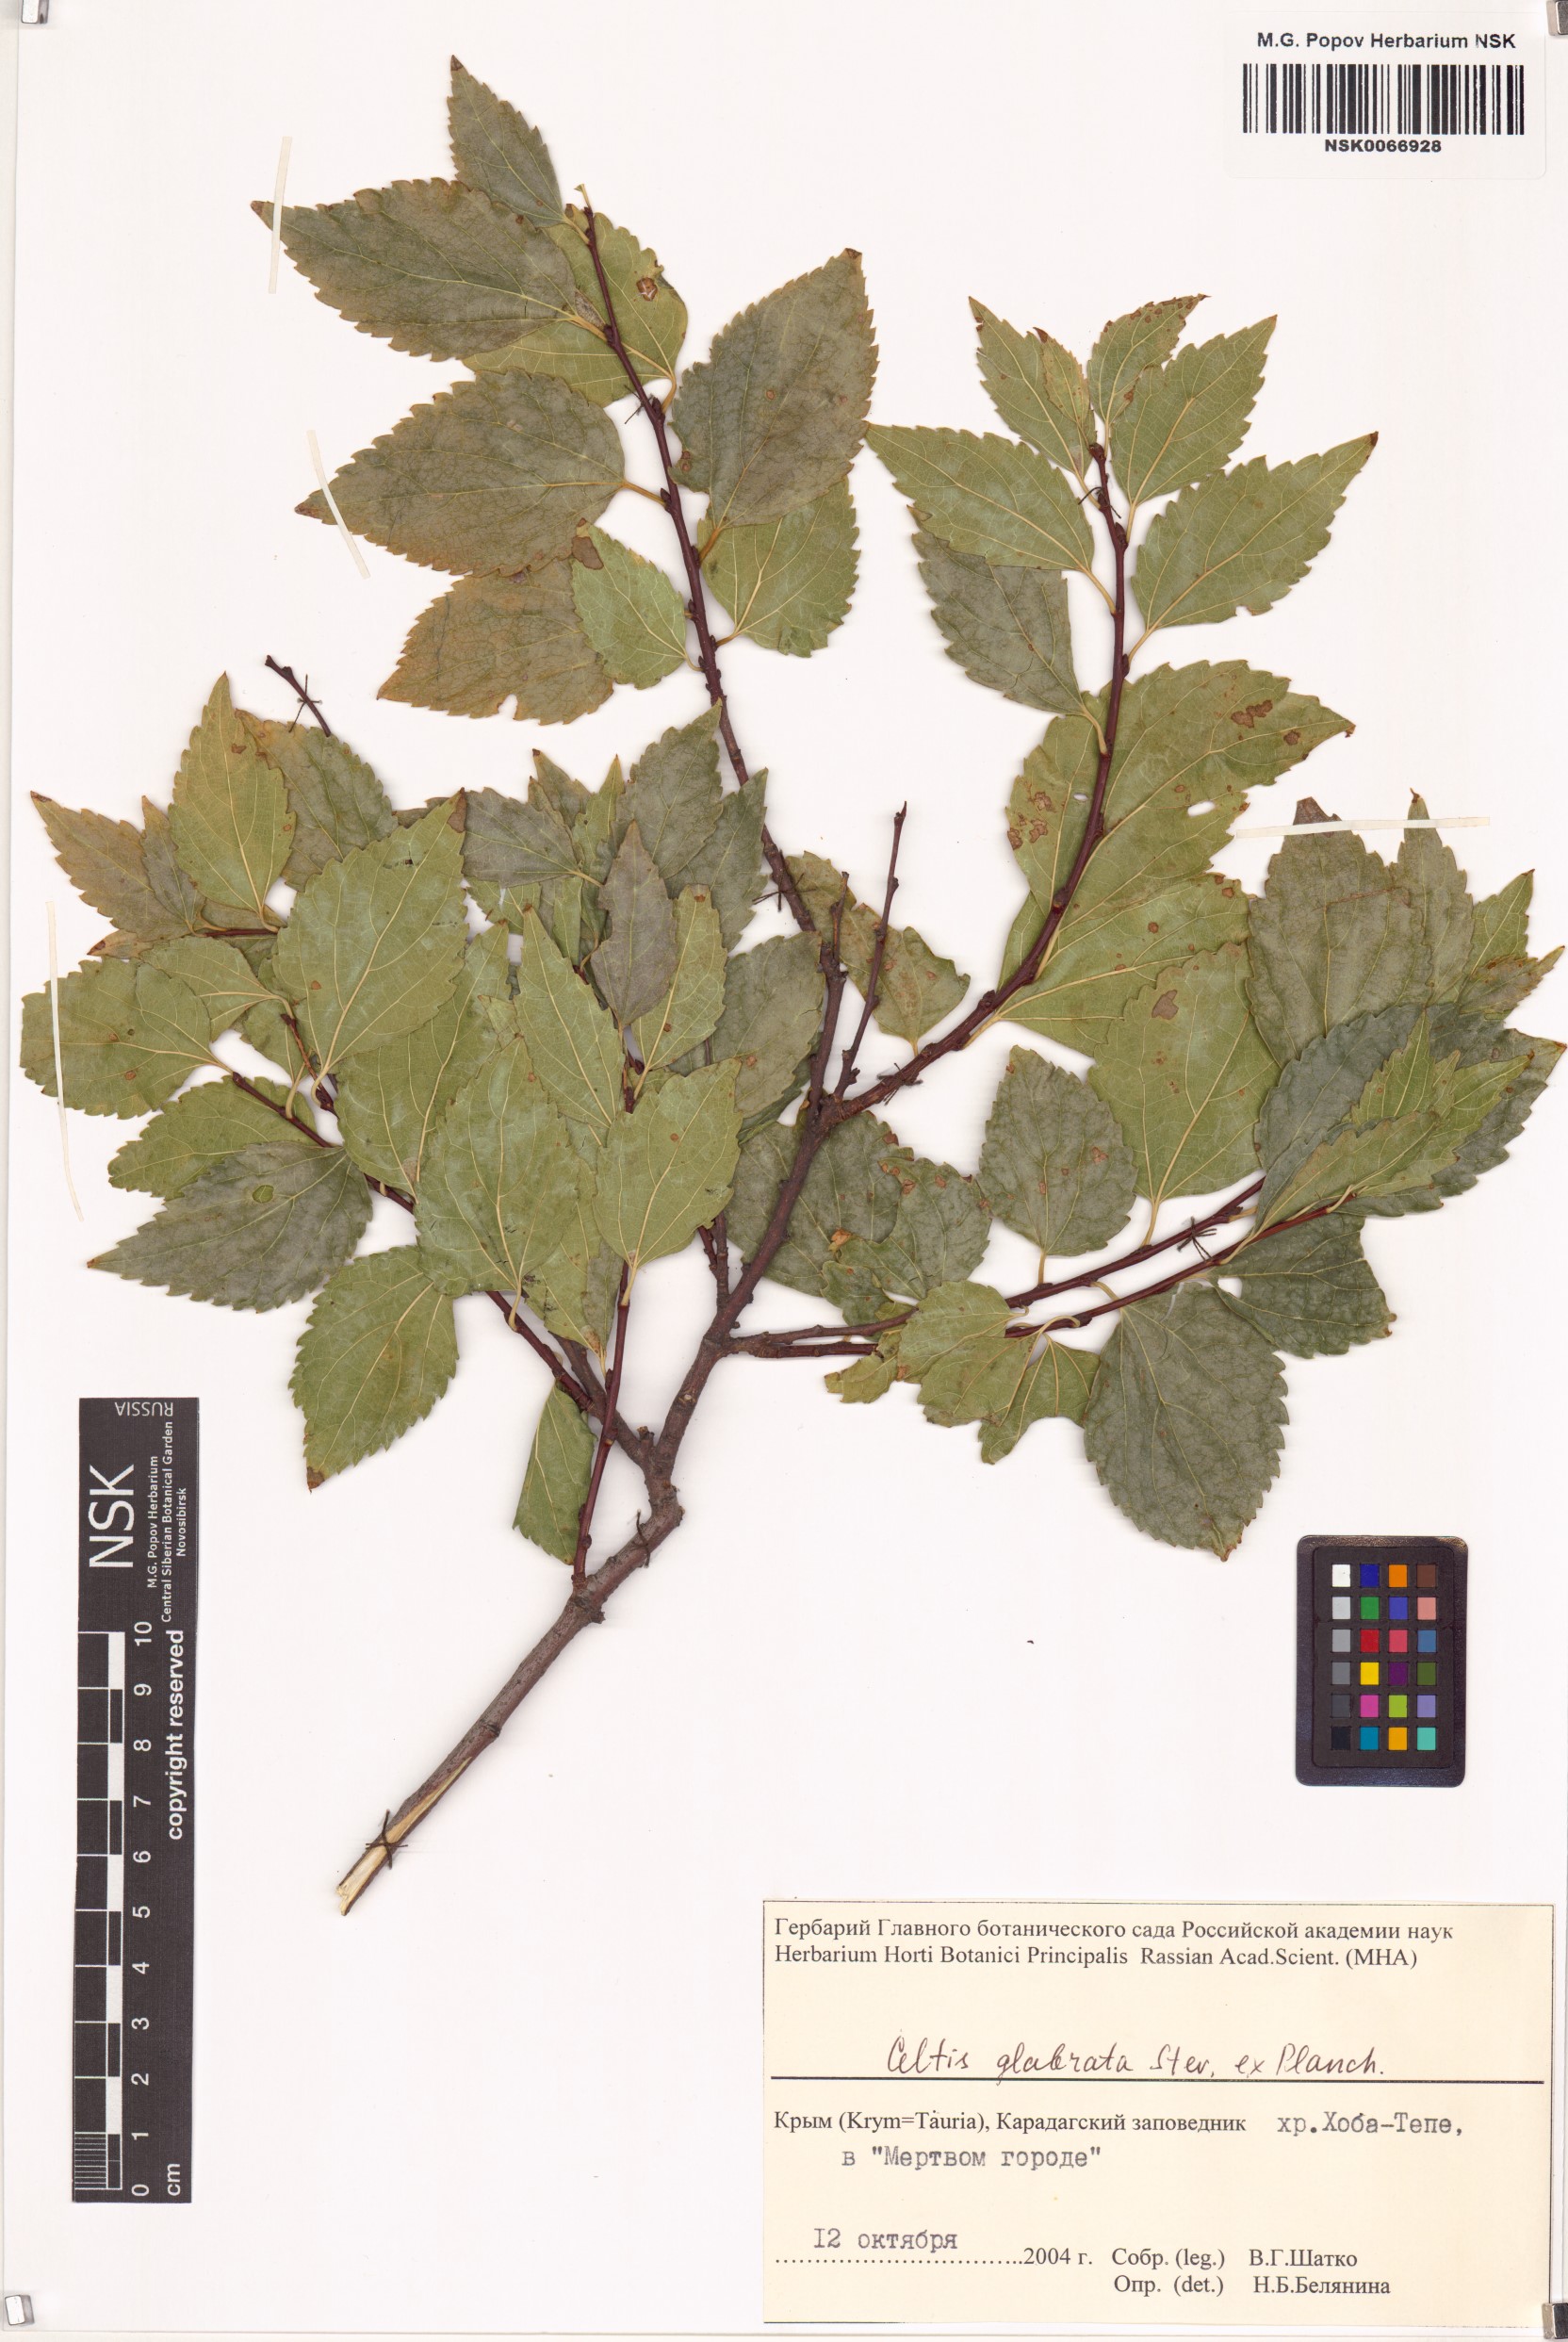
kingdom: Plantae
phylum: Tracheophyta
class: Magnoliopsida
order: Rosales
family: Cannabaceae
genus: Celtis
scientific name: Celtis glabrata
